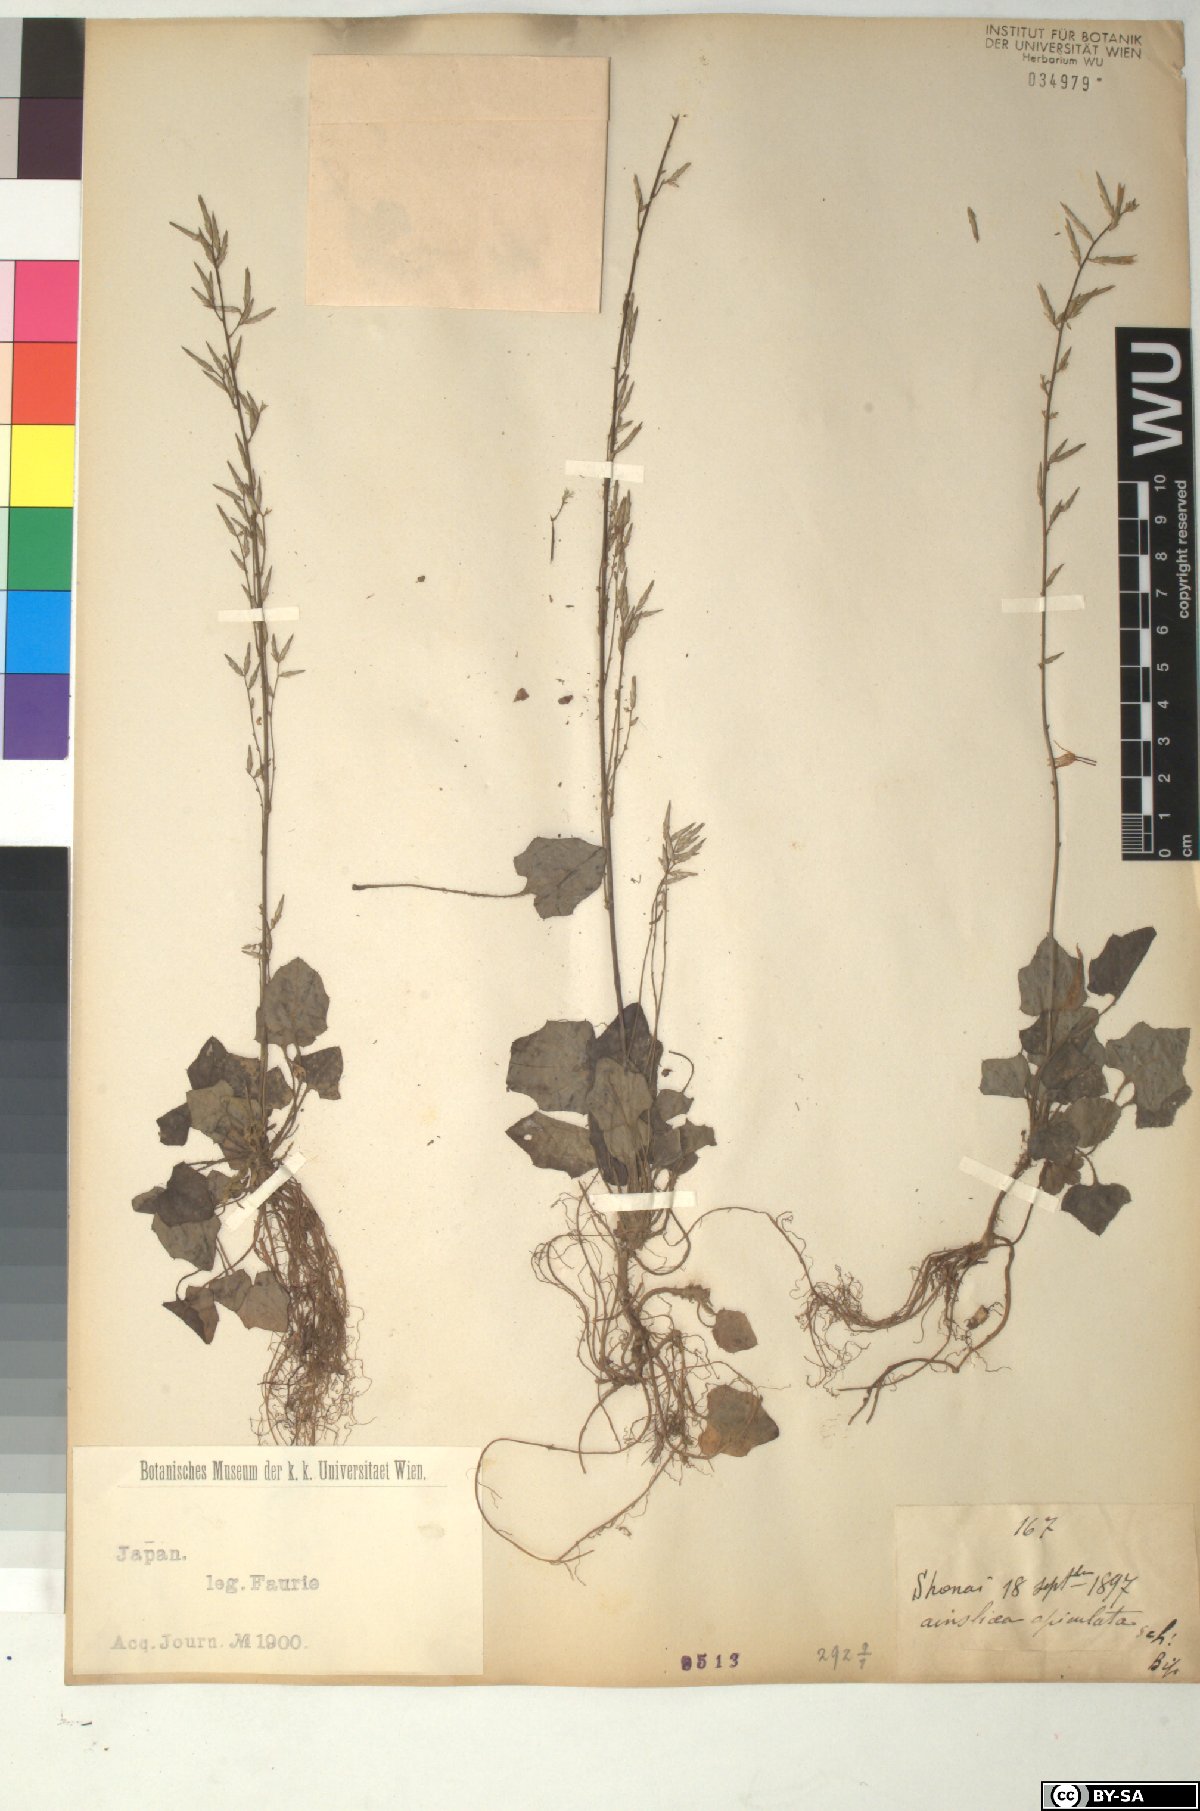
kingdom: Plantae
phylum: Tracheophyta
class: Magnoliopsida
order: Asterales
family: Asteraceae
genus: Ainsliaea
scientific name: Ainsliaea apiculata
